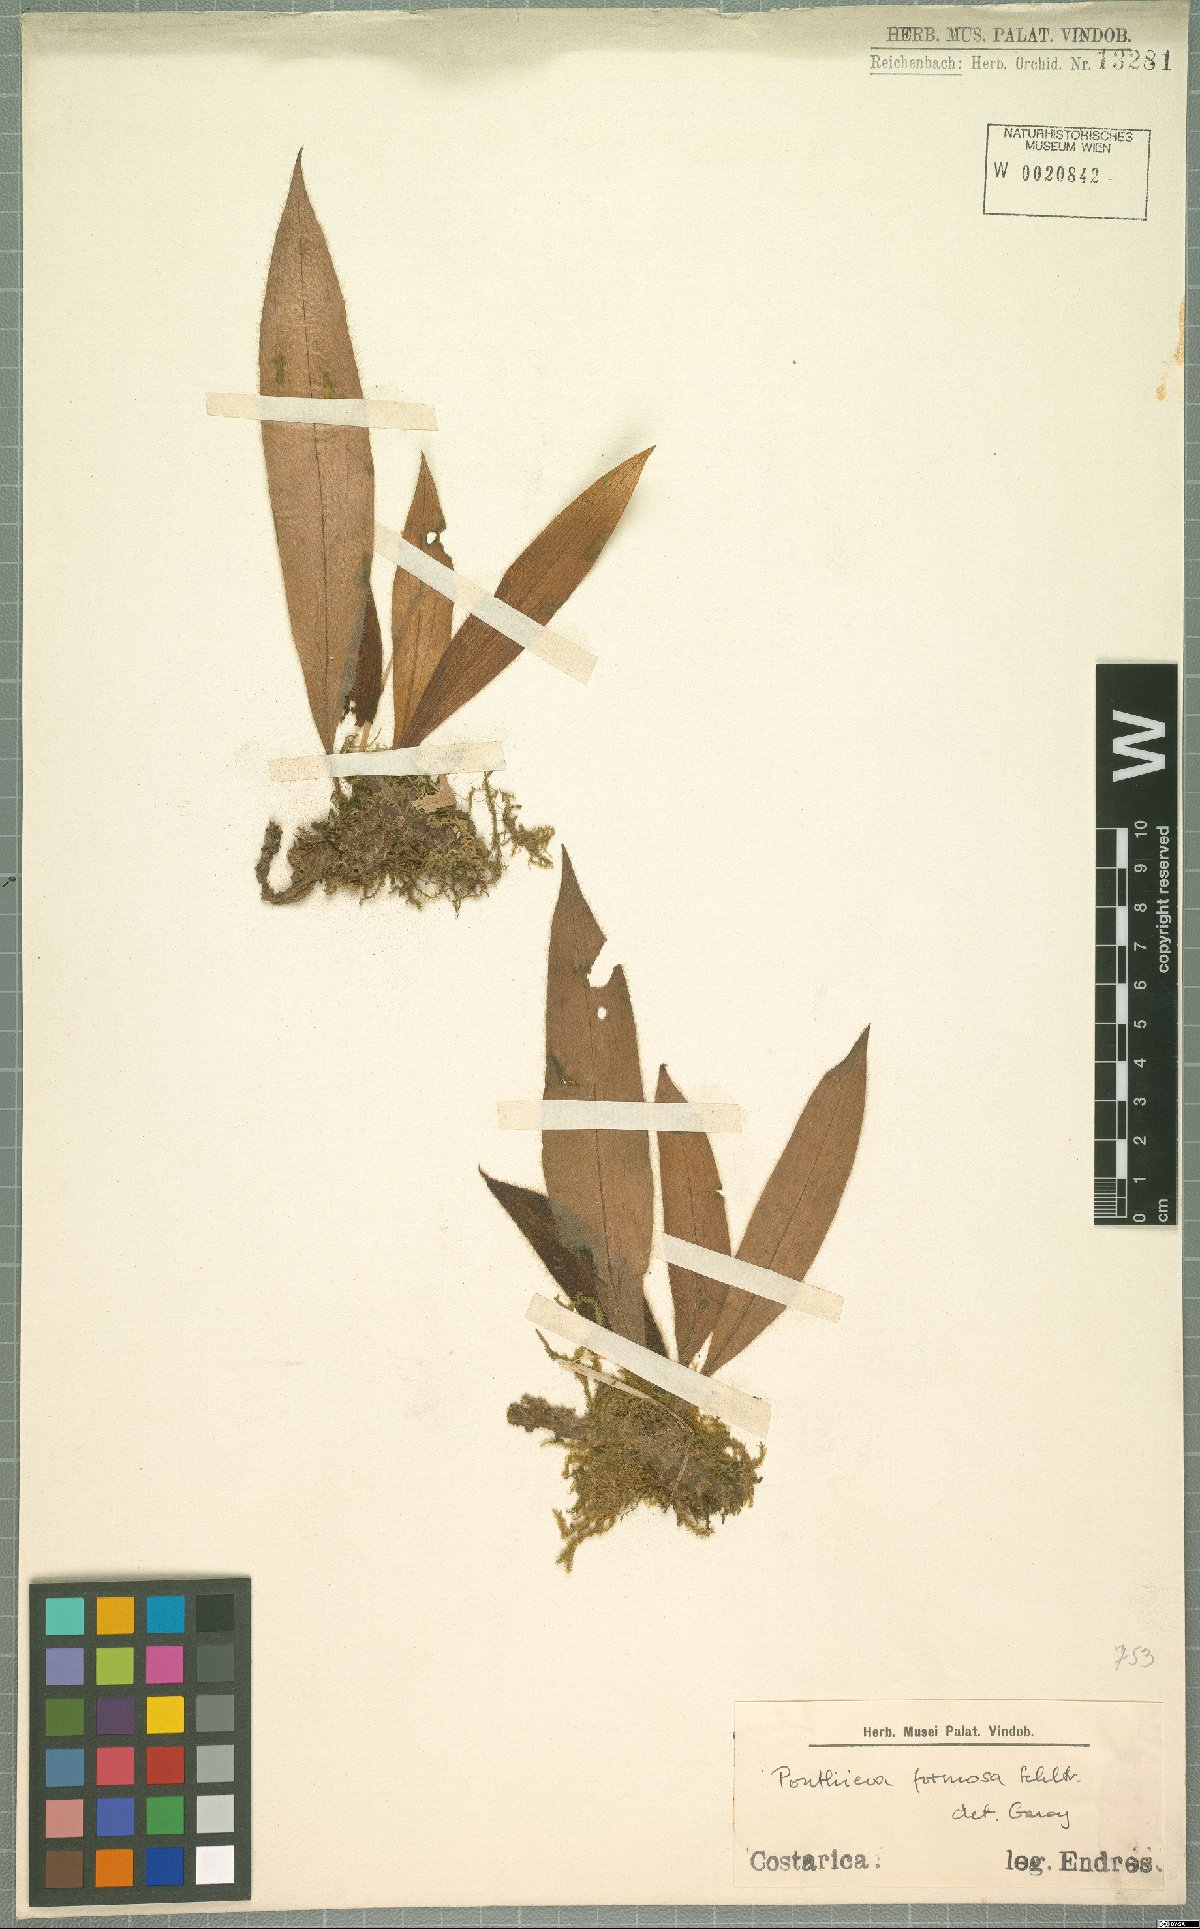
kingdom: Plantae
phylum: Tracheophyta
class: Liliopsida
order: Asparagales
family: Orchidaceae
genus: Ponthieva
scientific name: Ponthieva formosa
